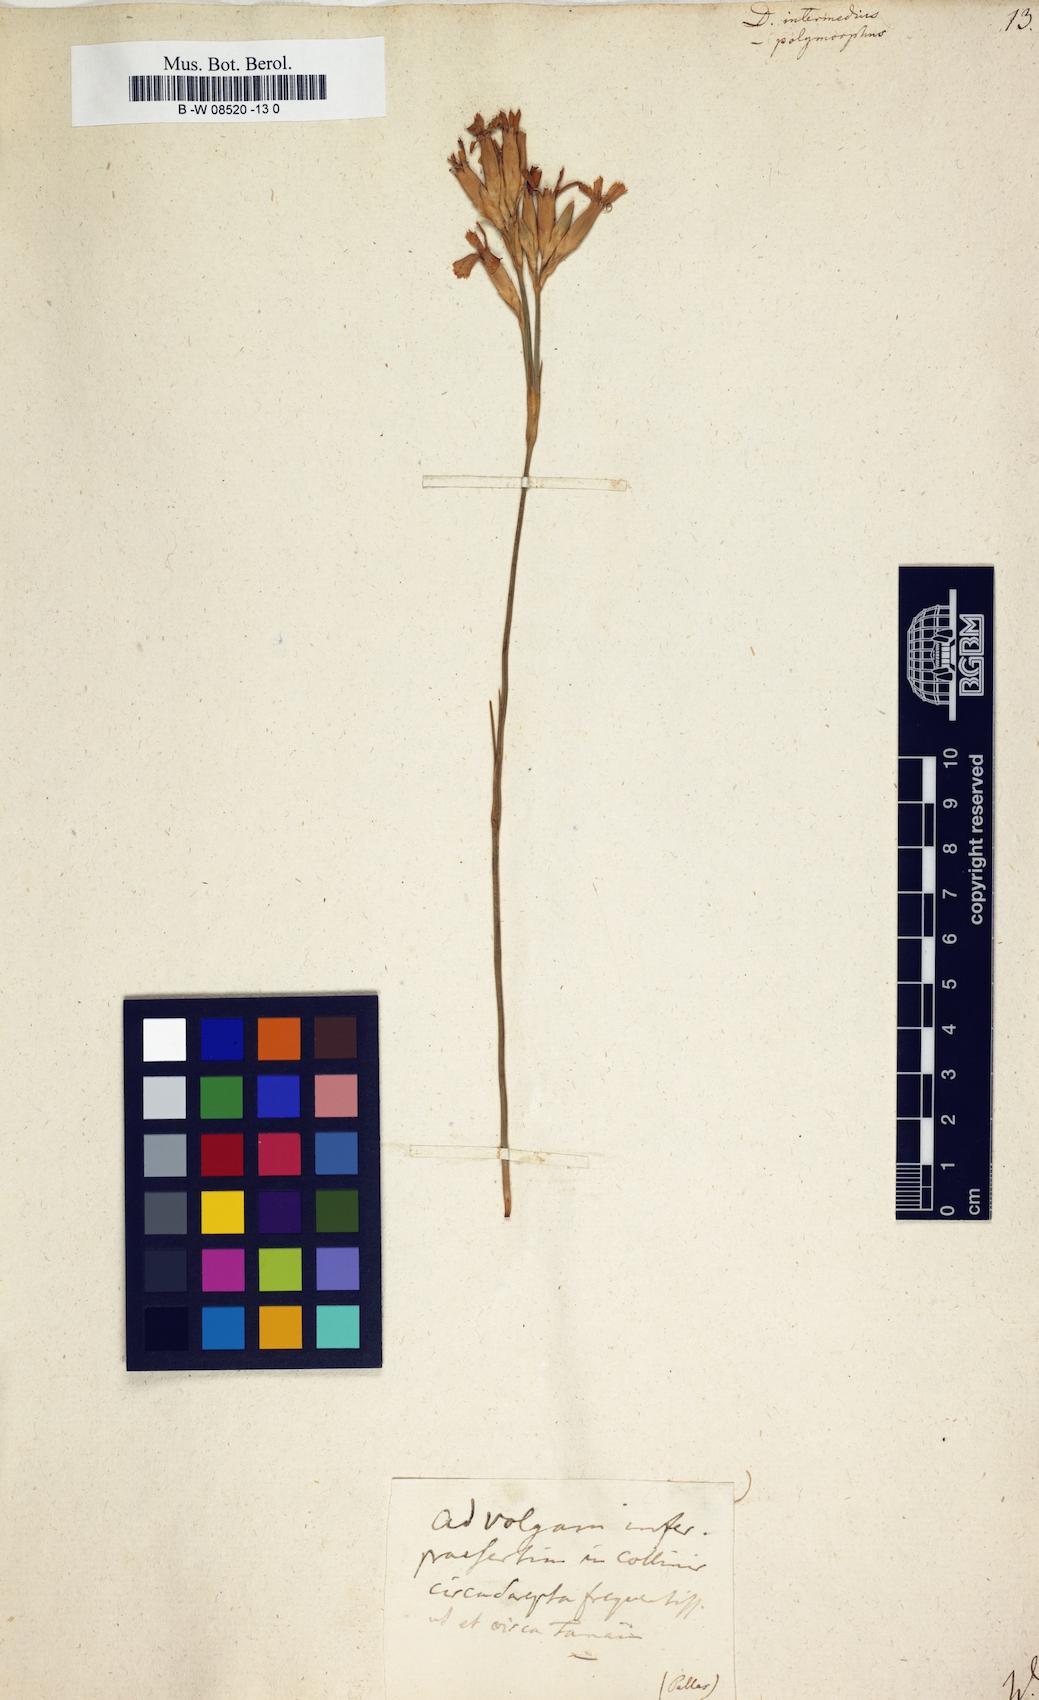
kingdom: Plantae
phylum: Tracheophyta
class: Magnoliopsida
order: Caryophyllales
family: Caryophyllaceae
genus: Dianthus
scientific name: Dianthus
